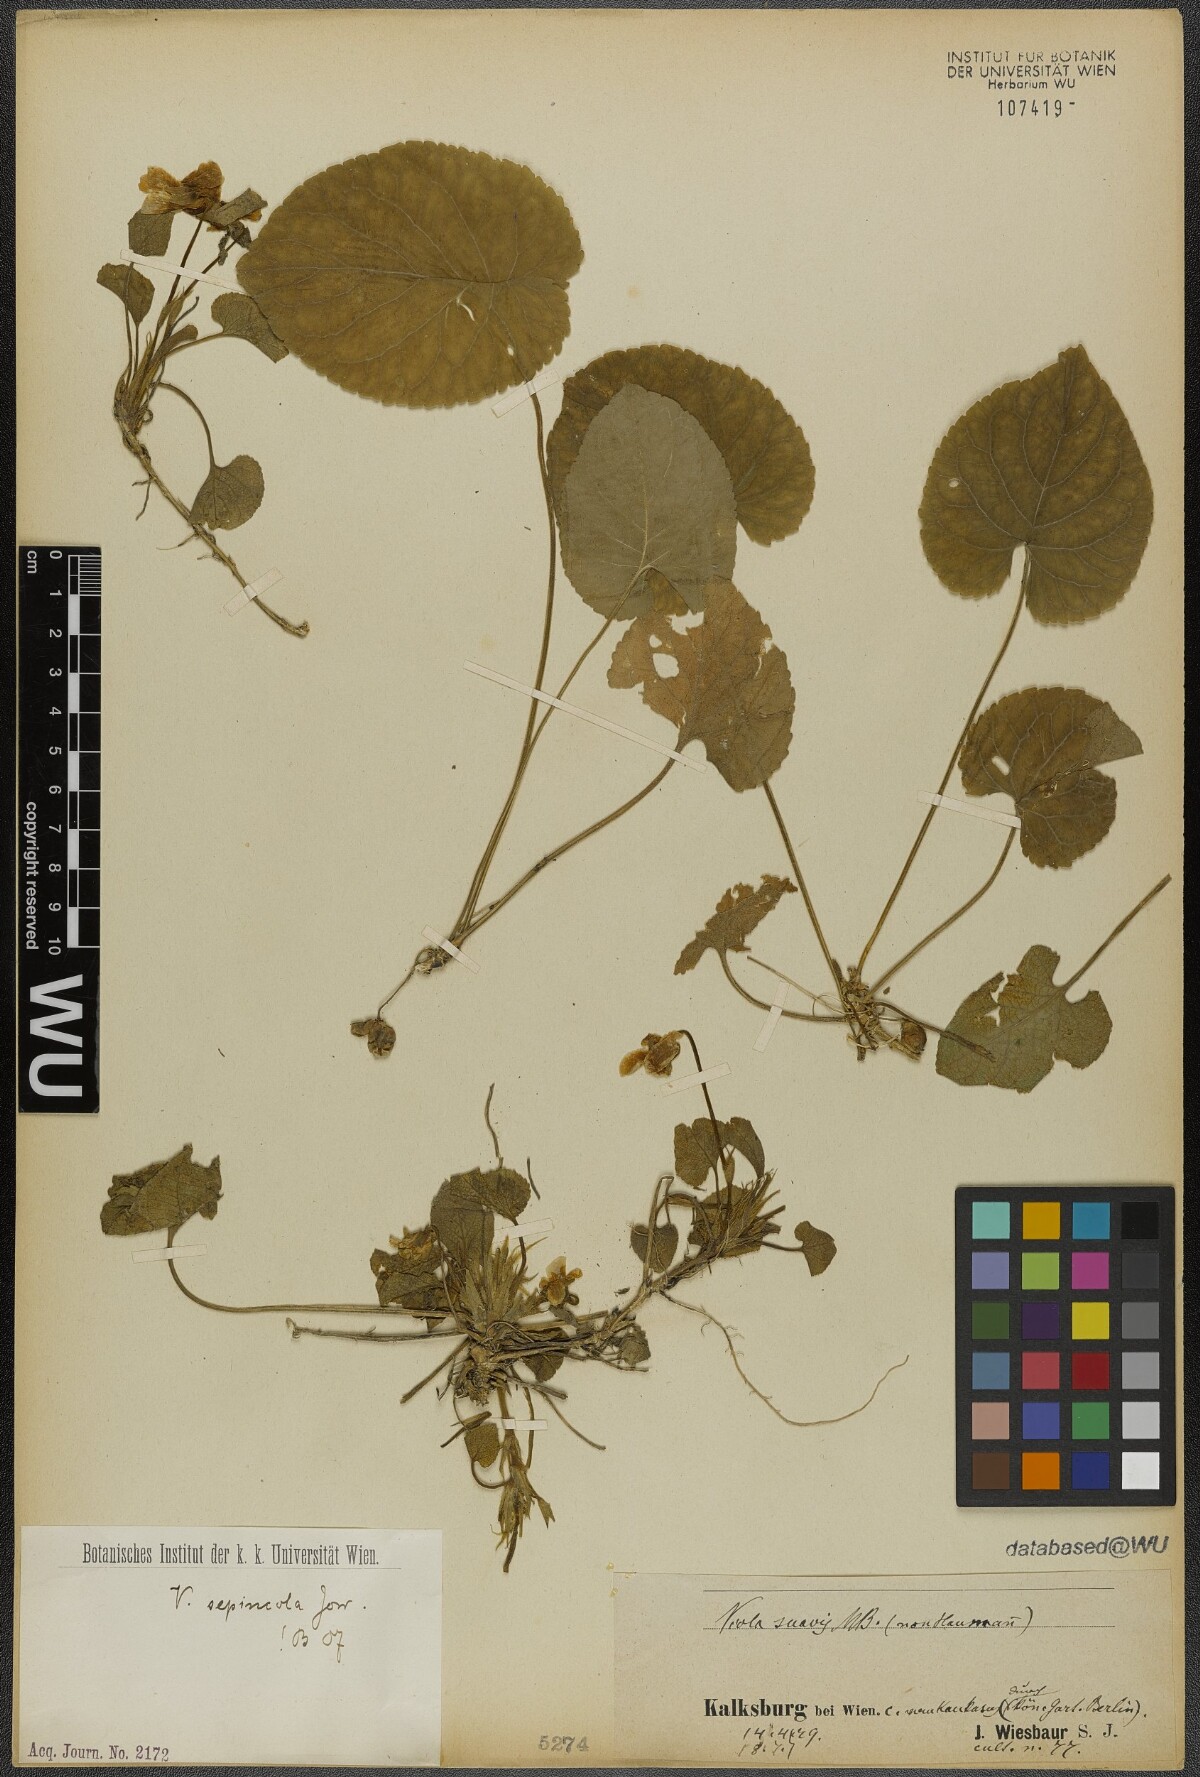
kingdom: Plantae
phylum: Tracheophyta
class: Magnoliopsida
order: Malpighiales
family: Violaceae
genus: Viola
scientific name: Viola suavis
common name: Russian violet
